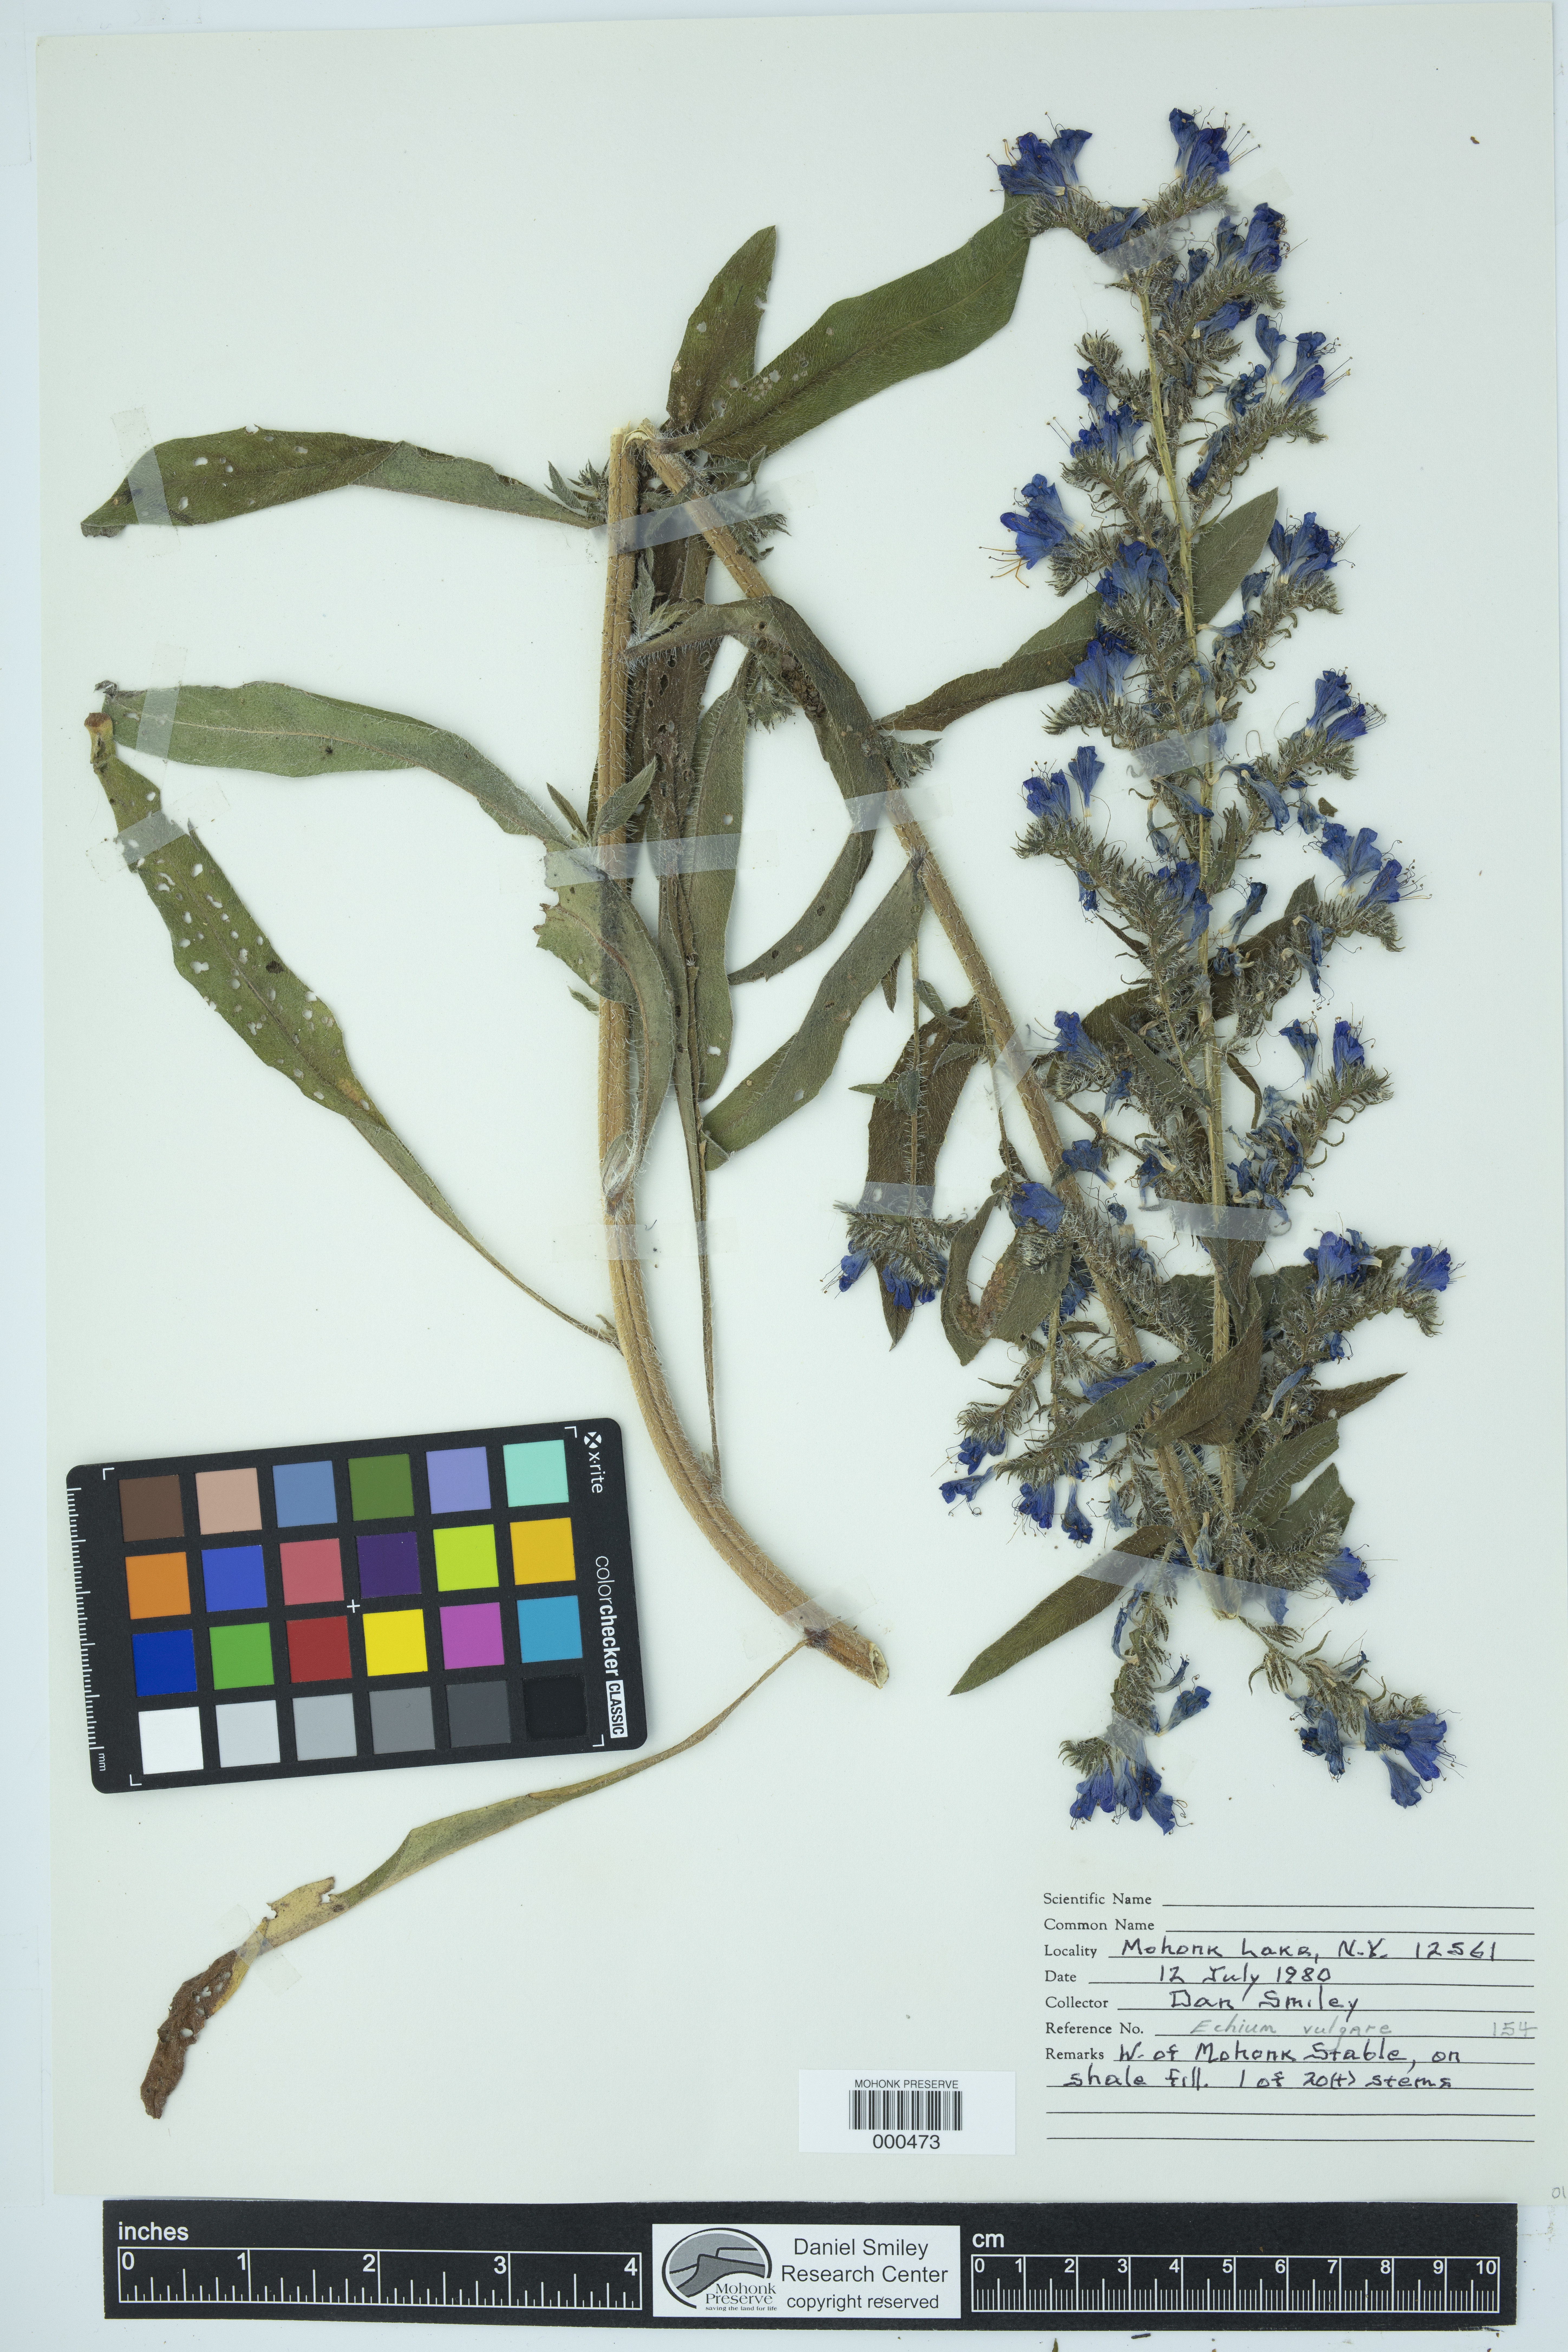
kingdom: Plantae
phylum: Tracheophyta
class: Magnoliopsida
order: Boraginales
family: Boraginaceae
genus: Echium
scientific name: Echium vulgare
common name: Common viper's bugloss
